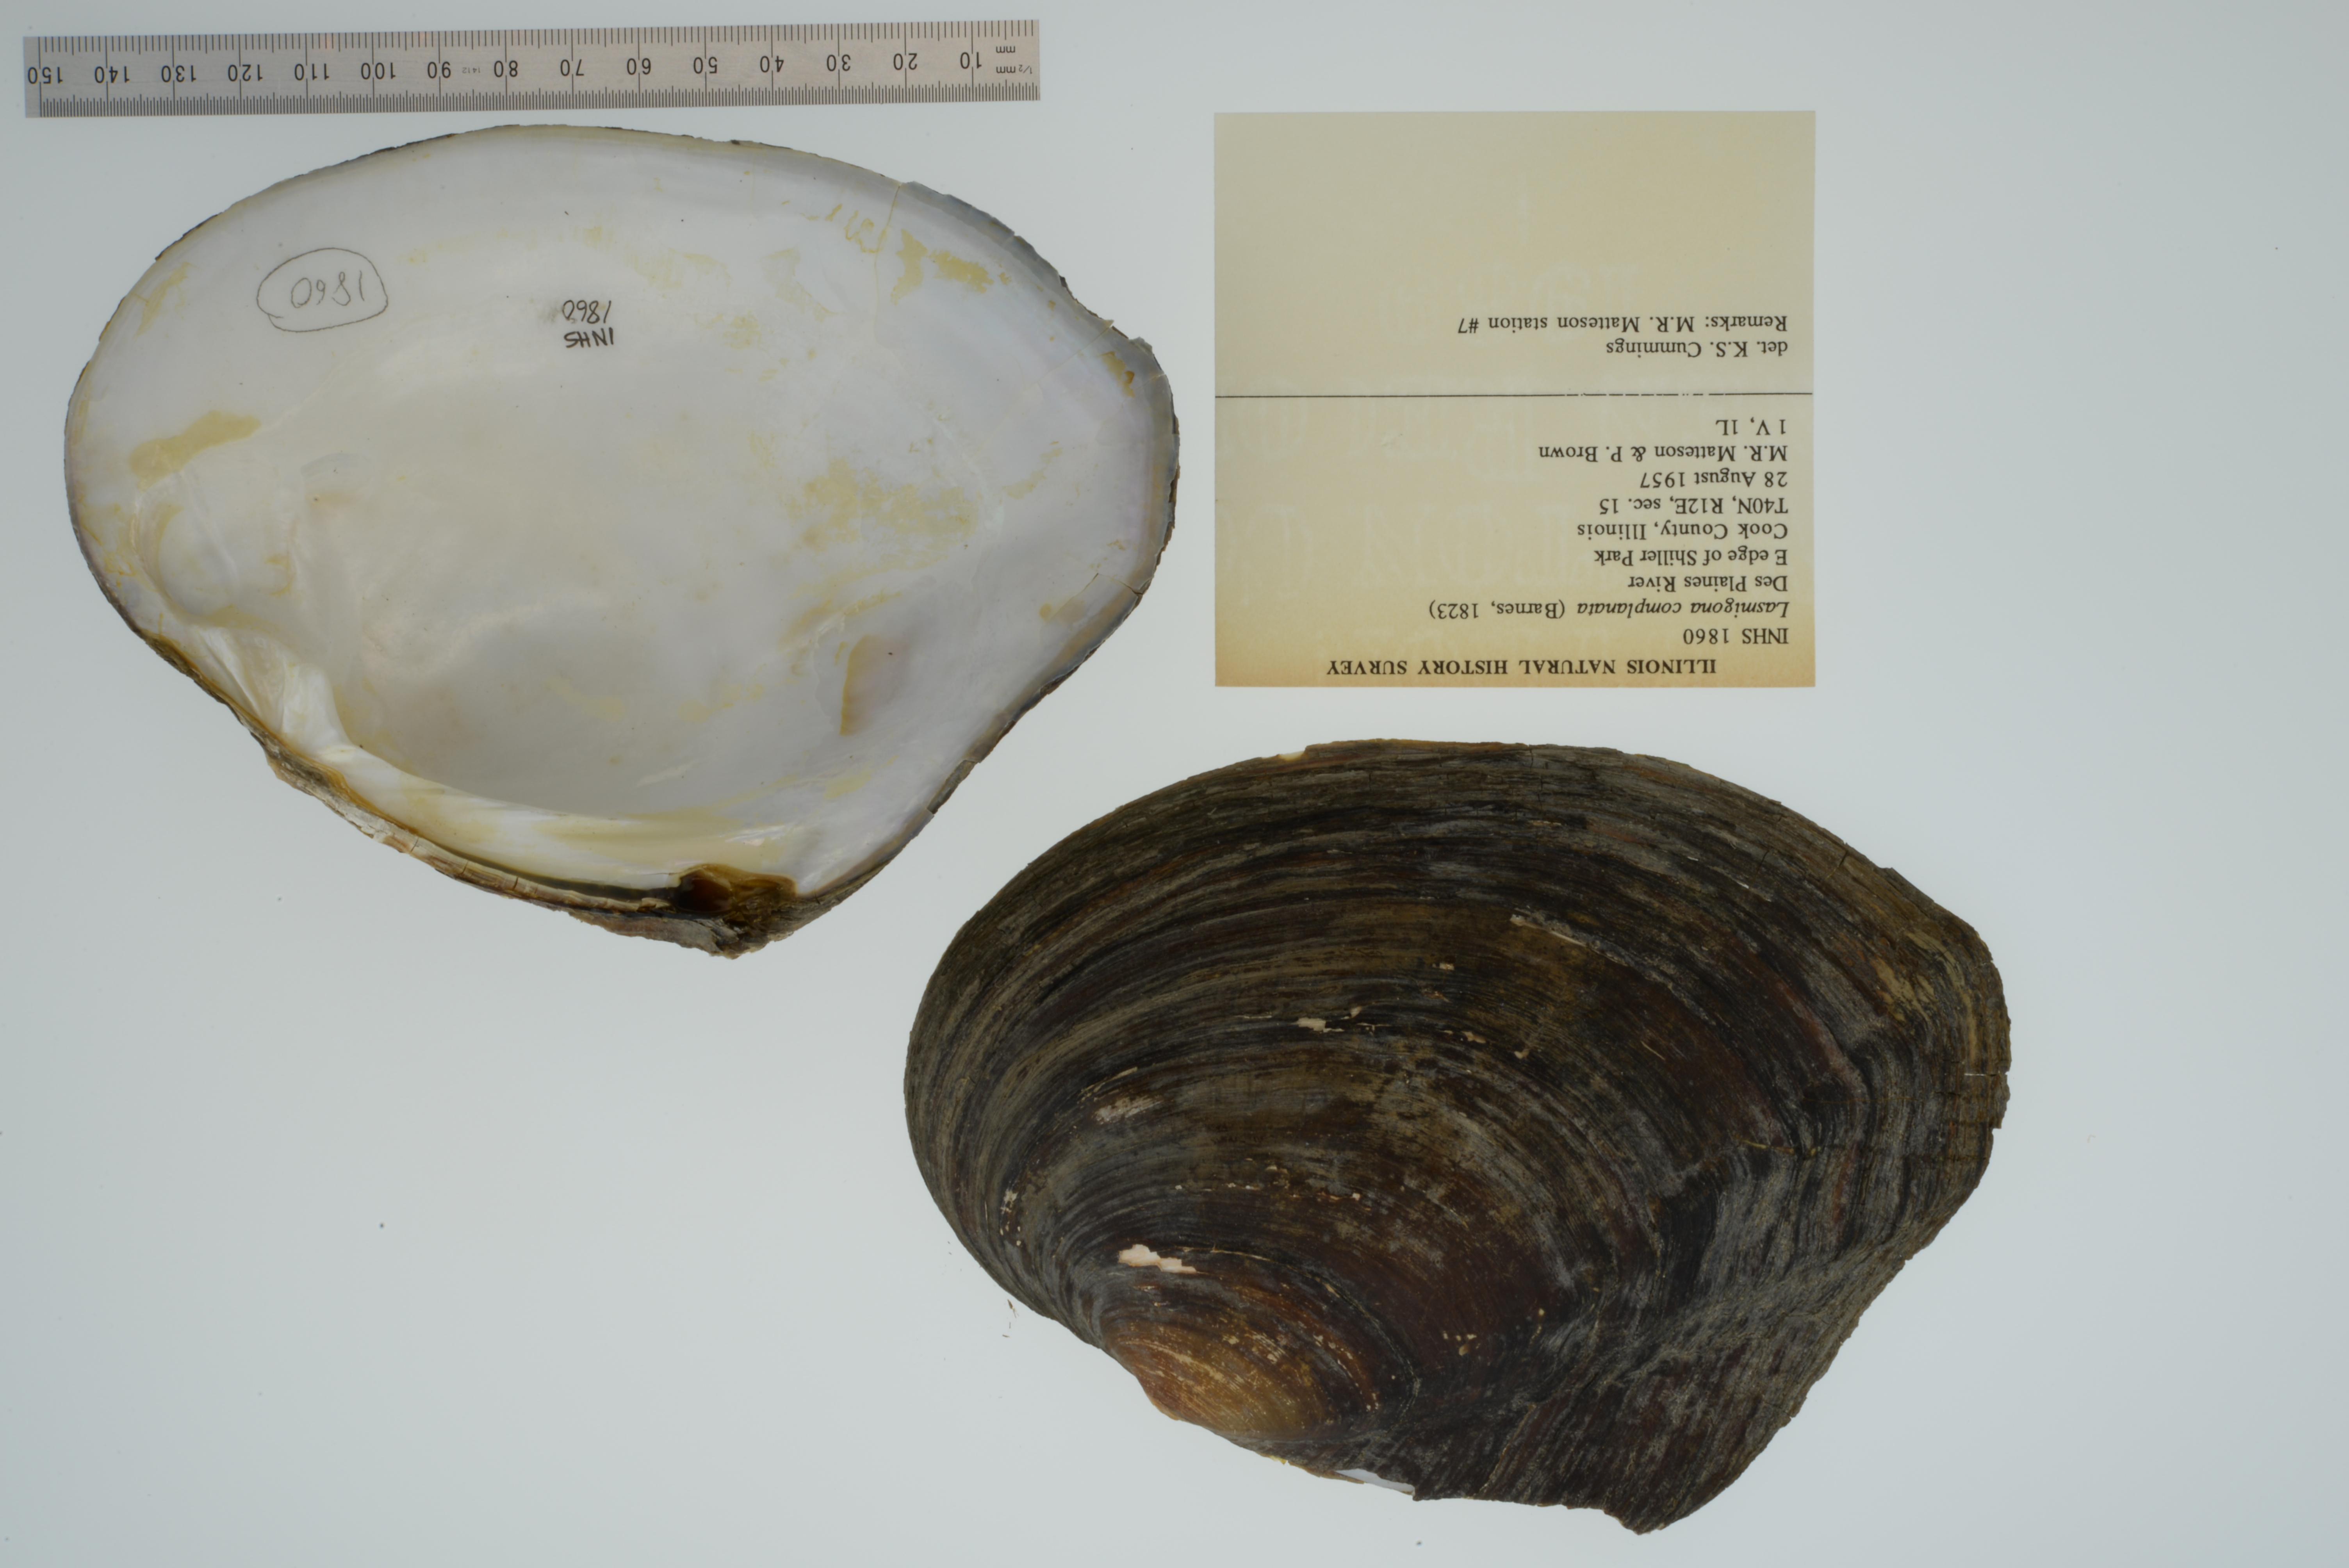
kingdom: Animalia
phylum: Mollusca
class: Bivalvia
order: Unionida
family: Unionidae
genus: Lasmigona
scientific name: Lasmigona complanata
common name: White heelsplitter
